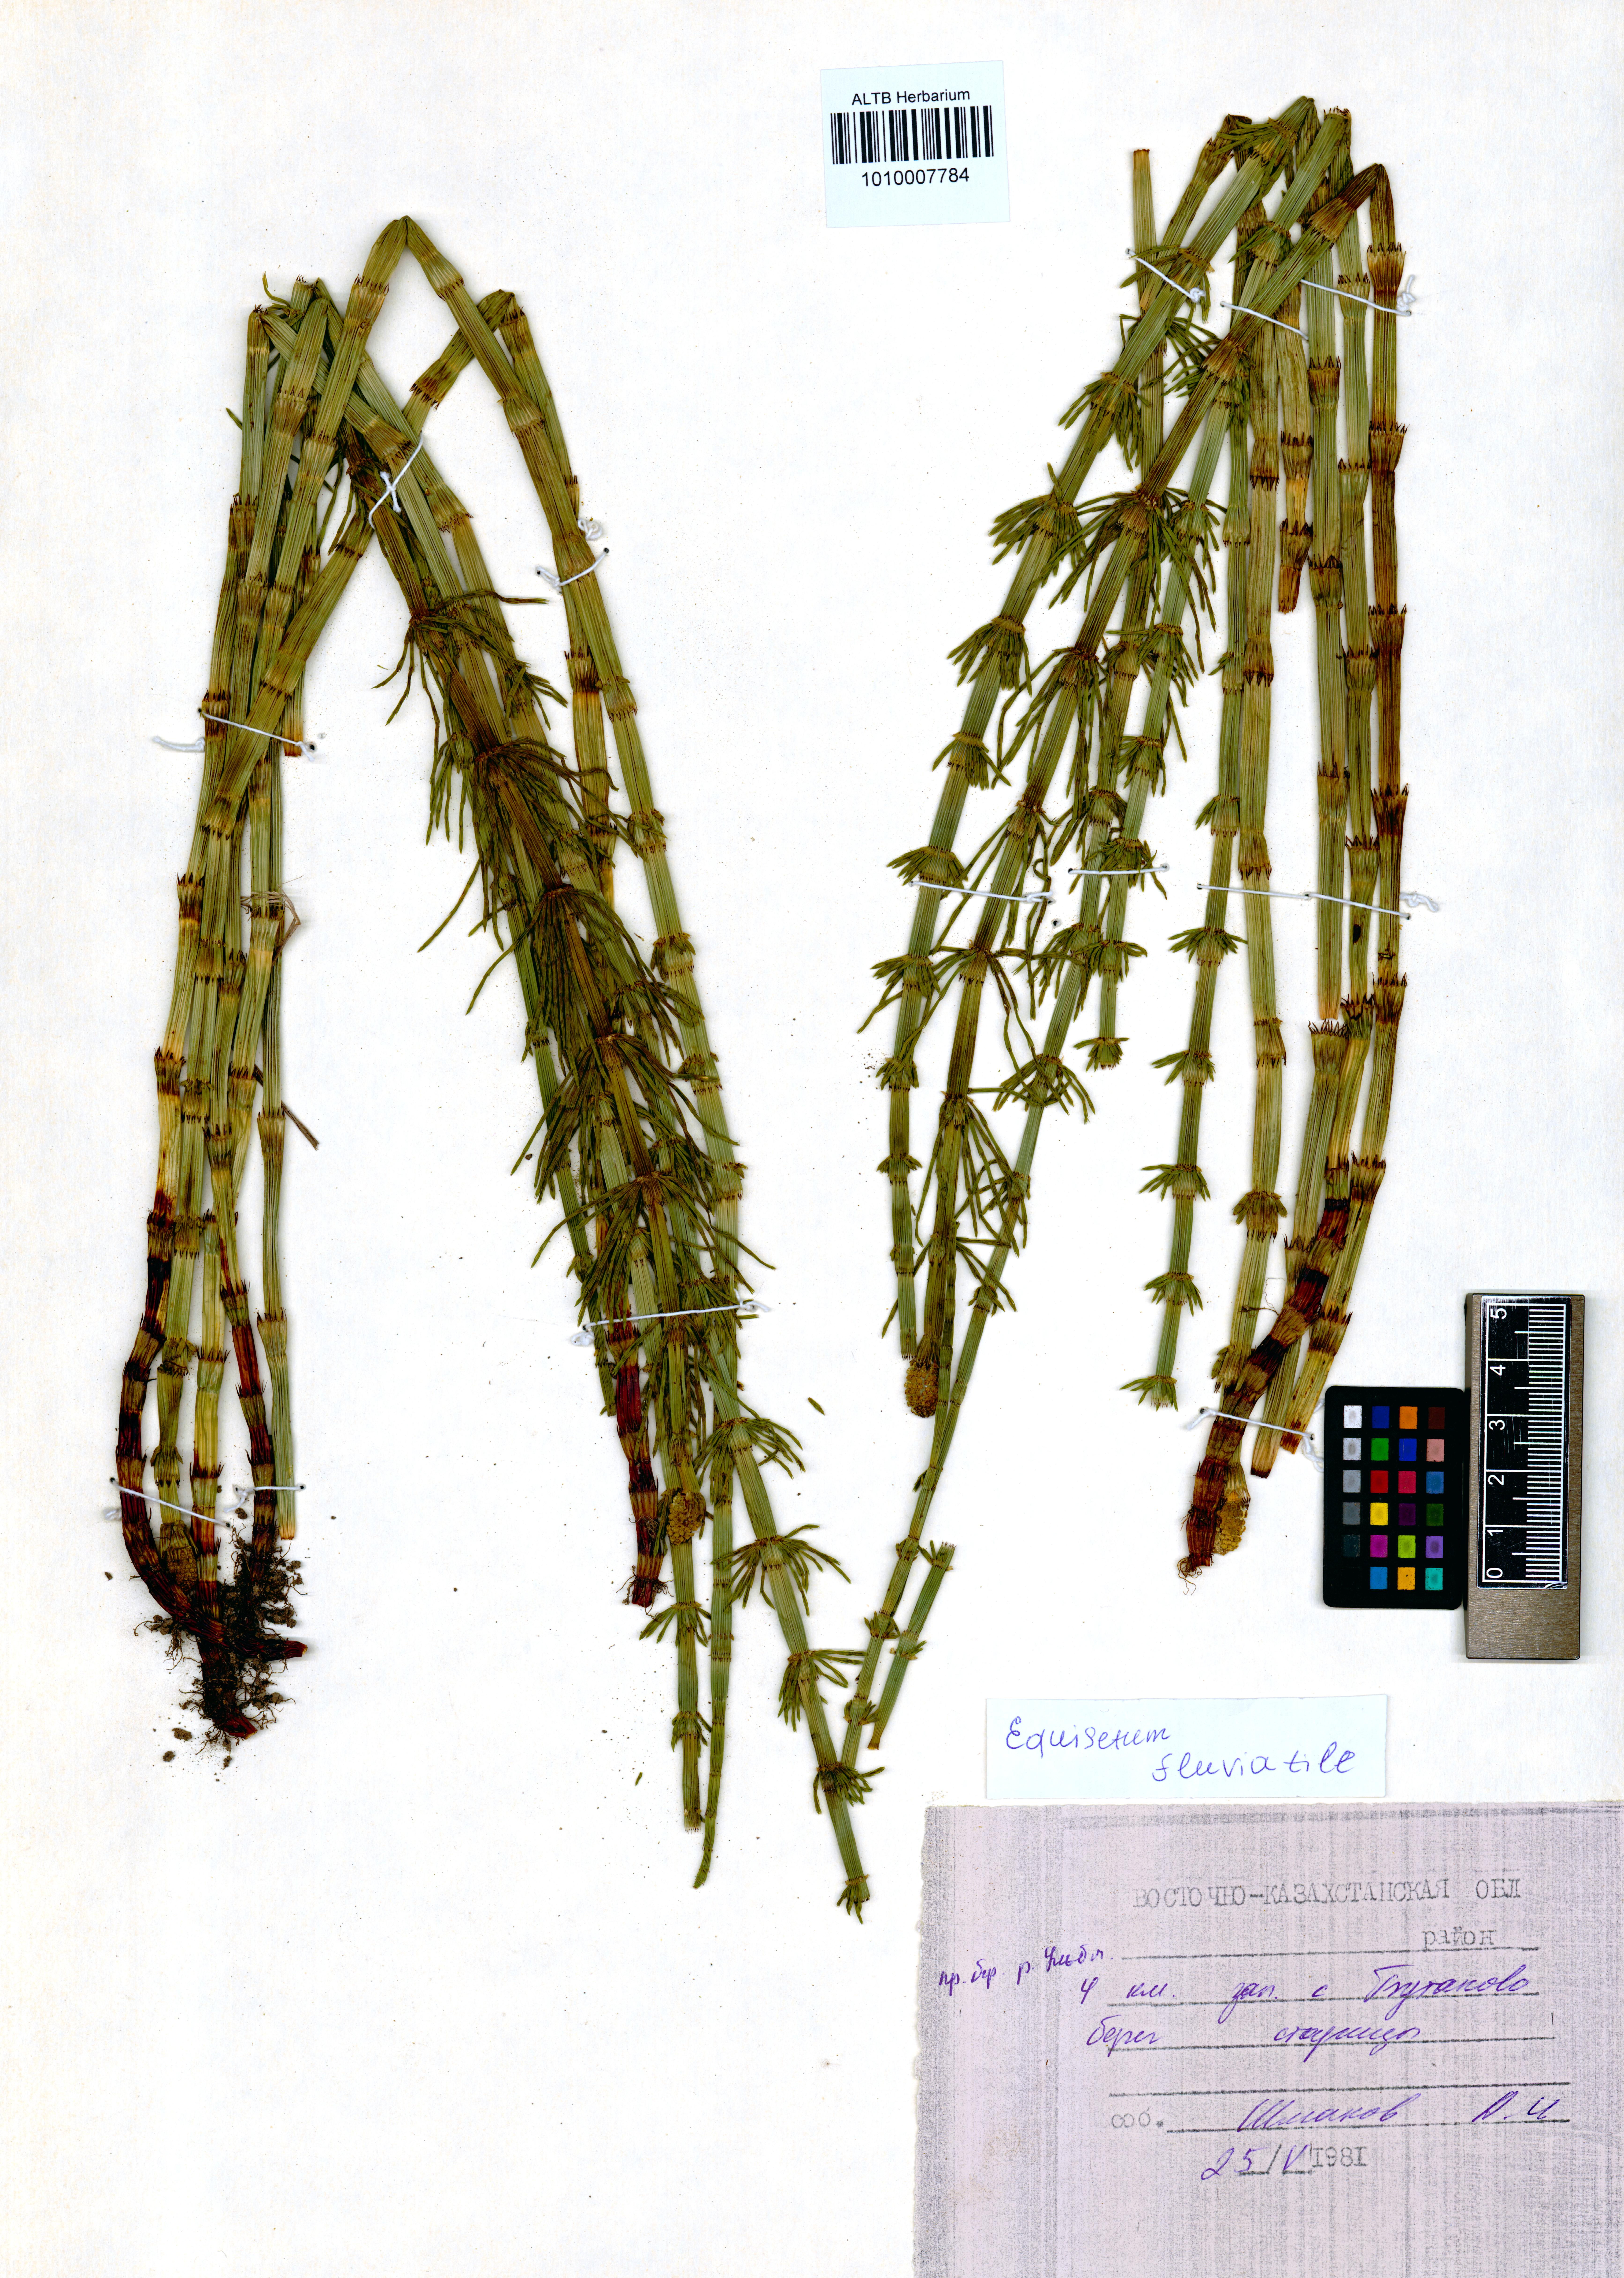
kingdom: Plantae
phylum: Tracheophyta
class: Polypodiopsida
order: Equisetales
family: Equisetaceae
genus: Equisetum
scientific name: Equisetum fluviatile
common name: Water horsetail
